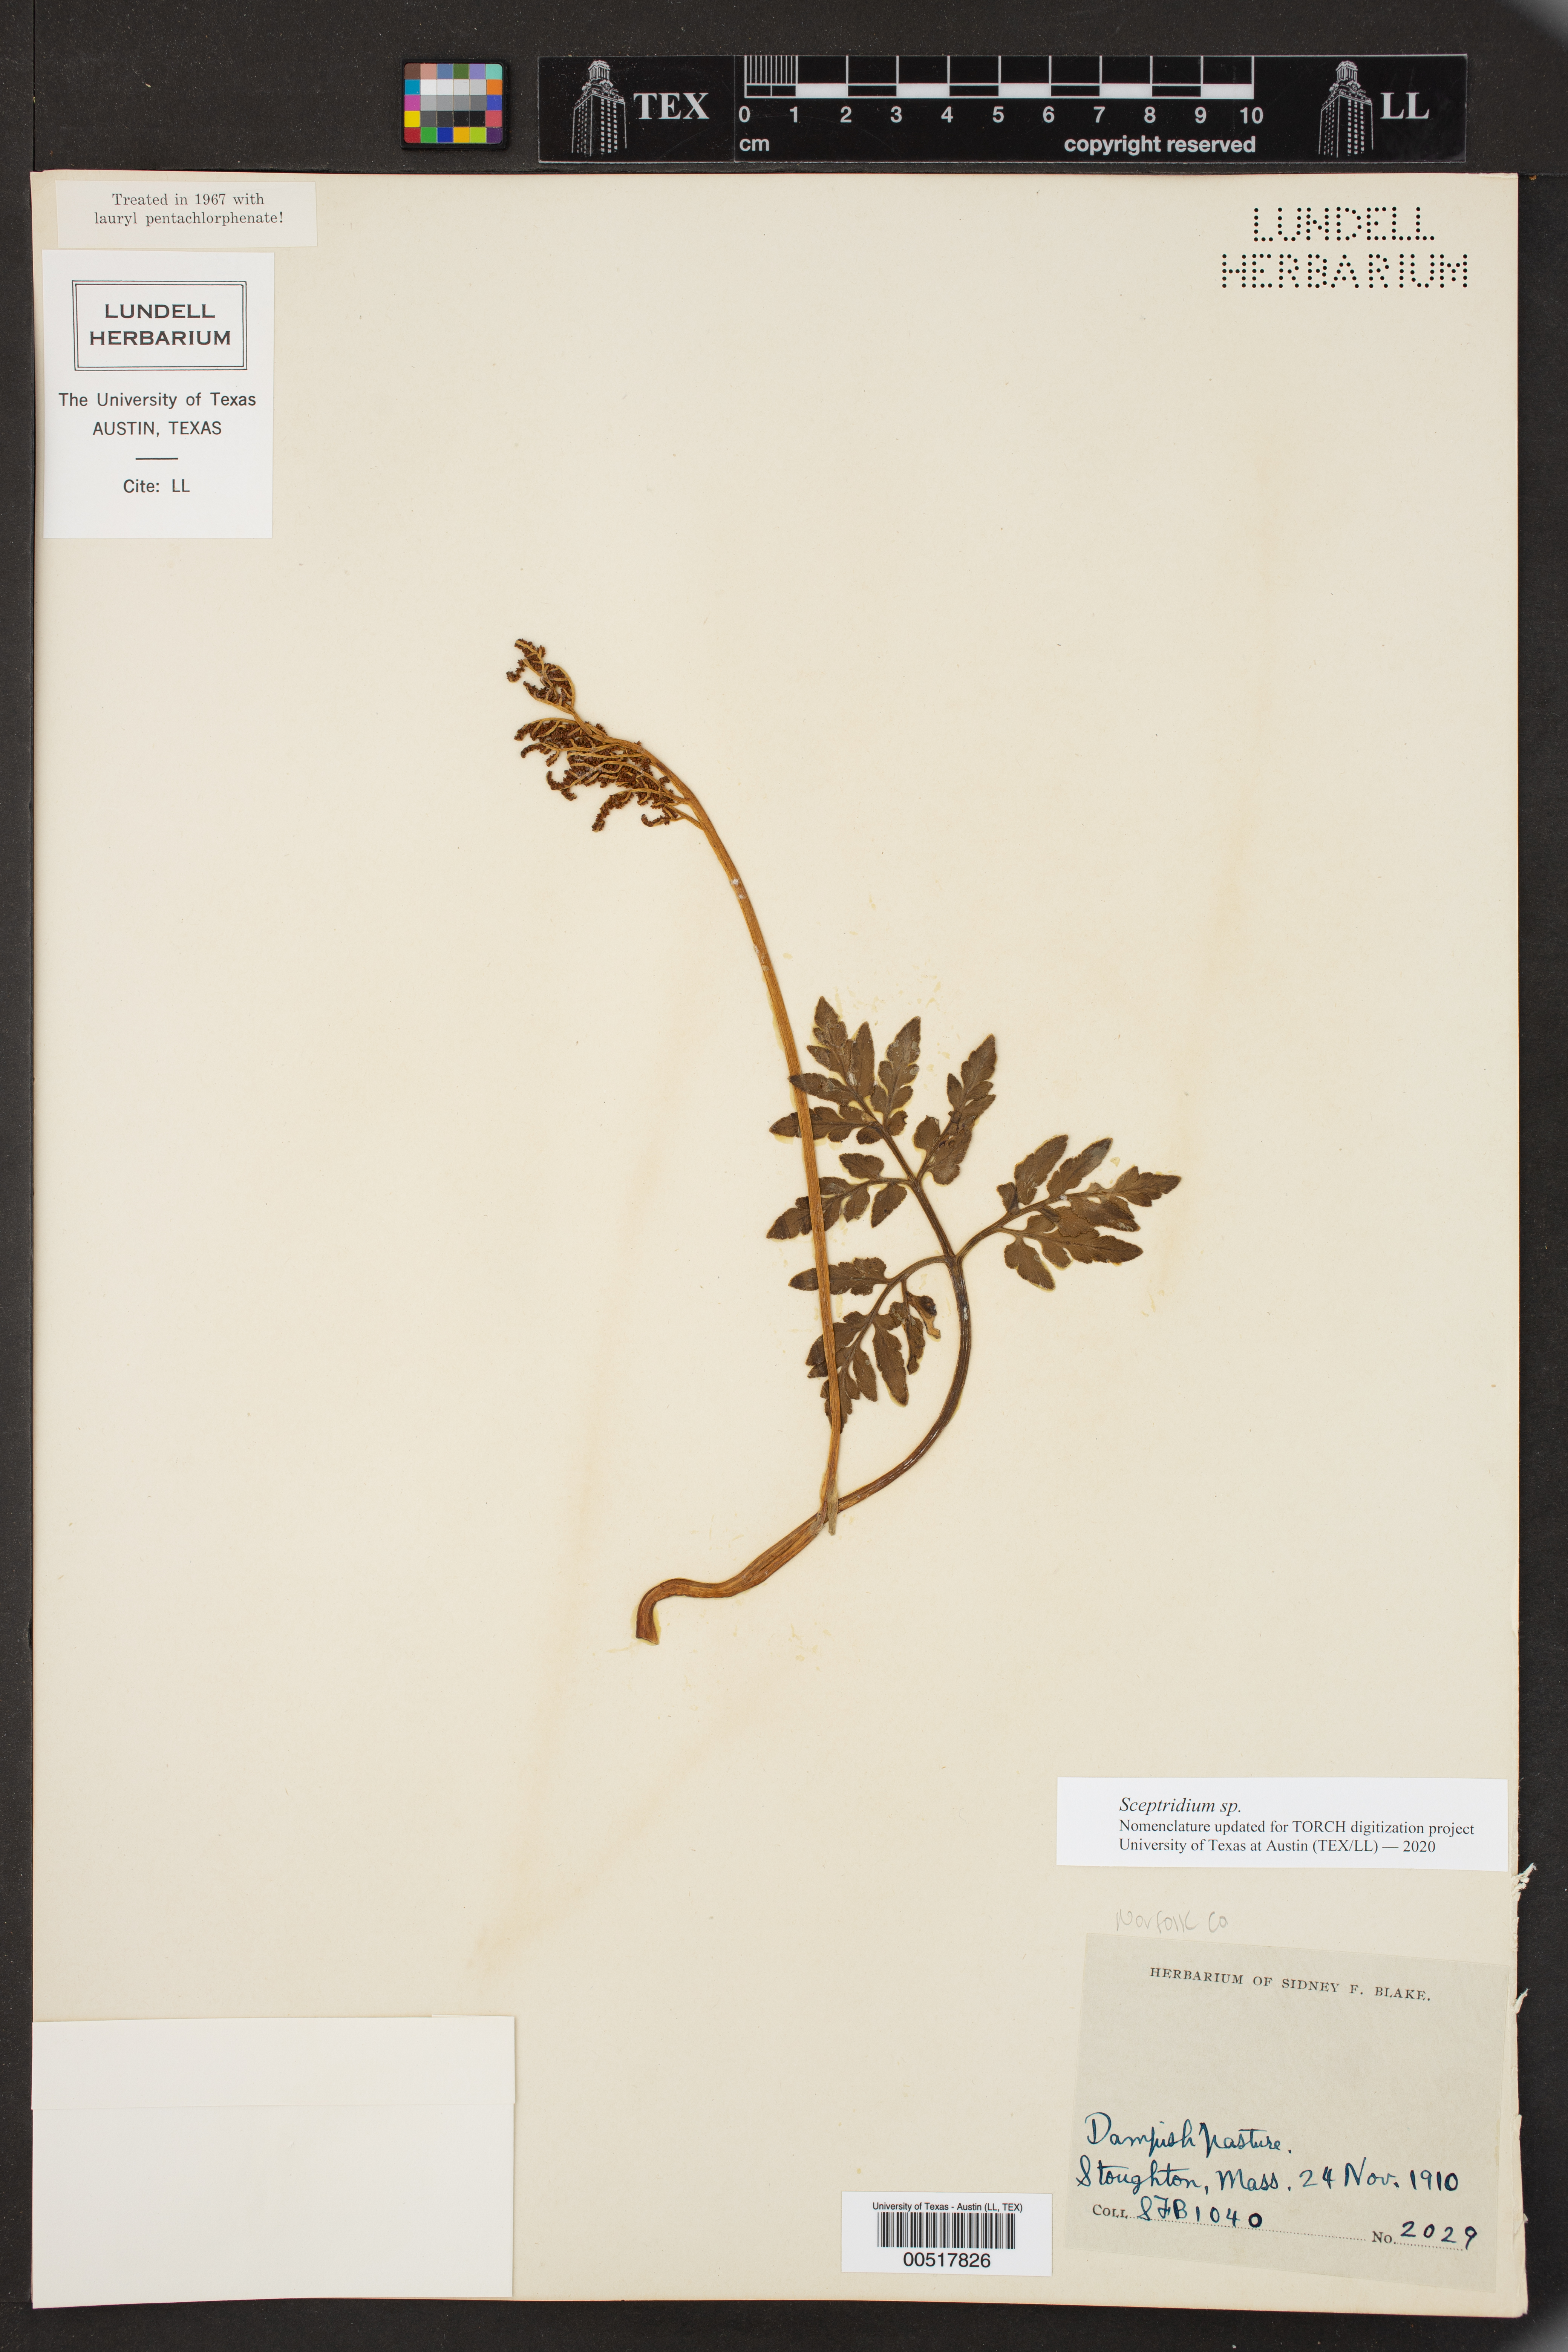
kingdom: Plantae
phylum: Tracheophyta
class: Polypodiopsida
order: Ophioglossales
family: Ophioglossaceae
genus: Sceptridium
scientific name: Sceptridium
